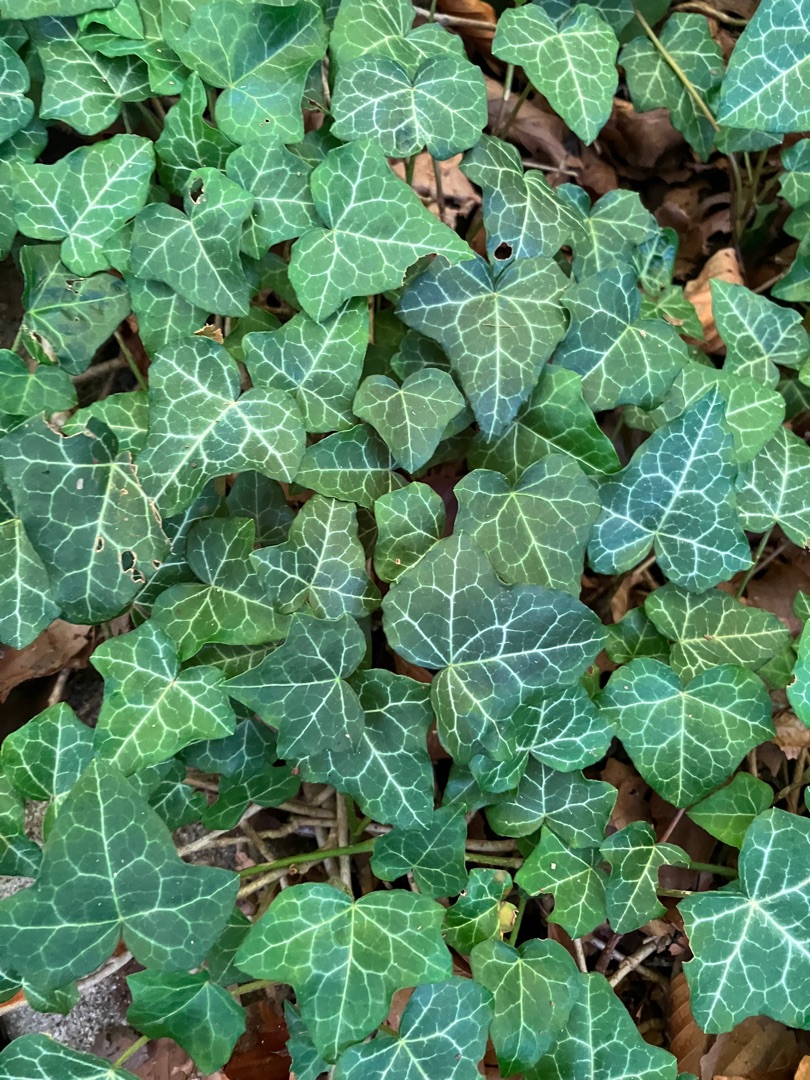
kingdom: Plantae
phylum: Tracheophyta
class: Magnoliopsida
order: Apiales
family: Araliaceae
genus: Hedera
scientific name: Hedera helix
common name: Vedbend
